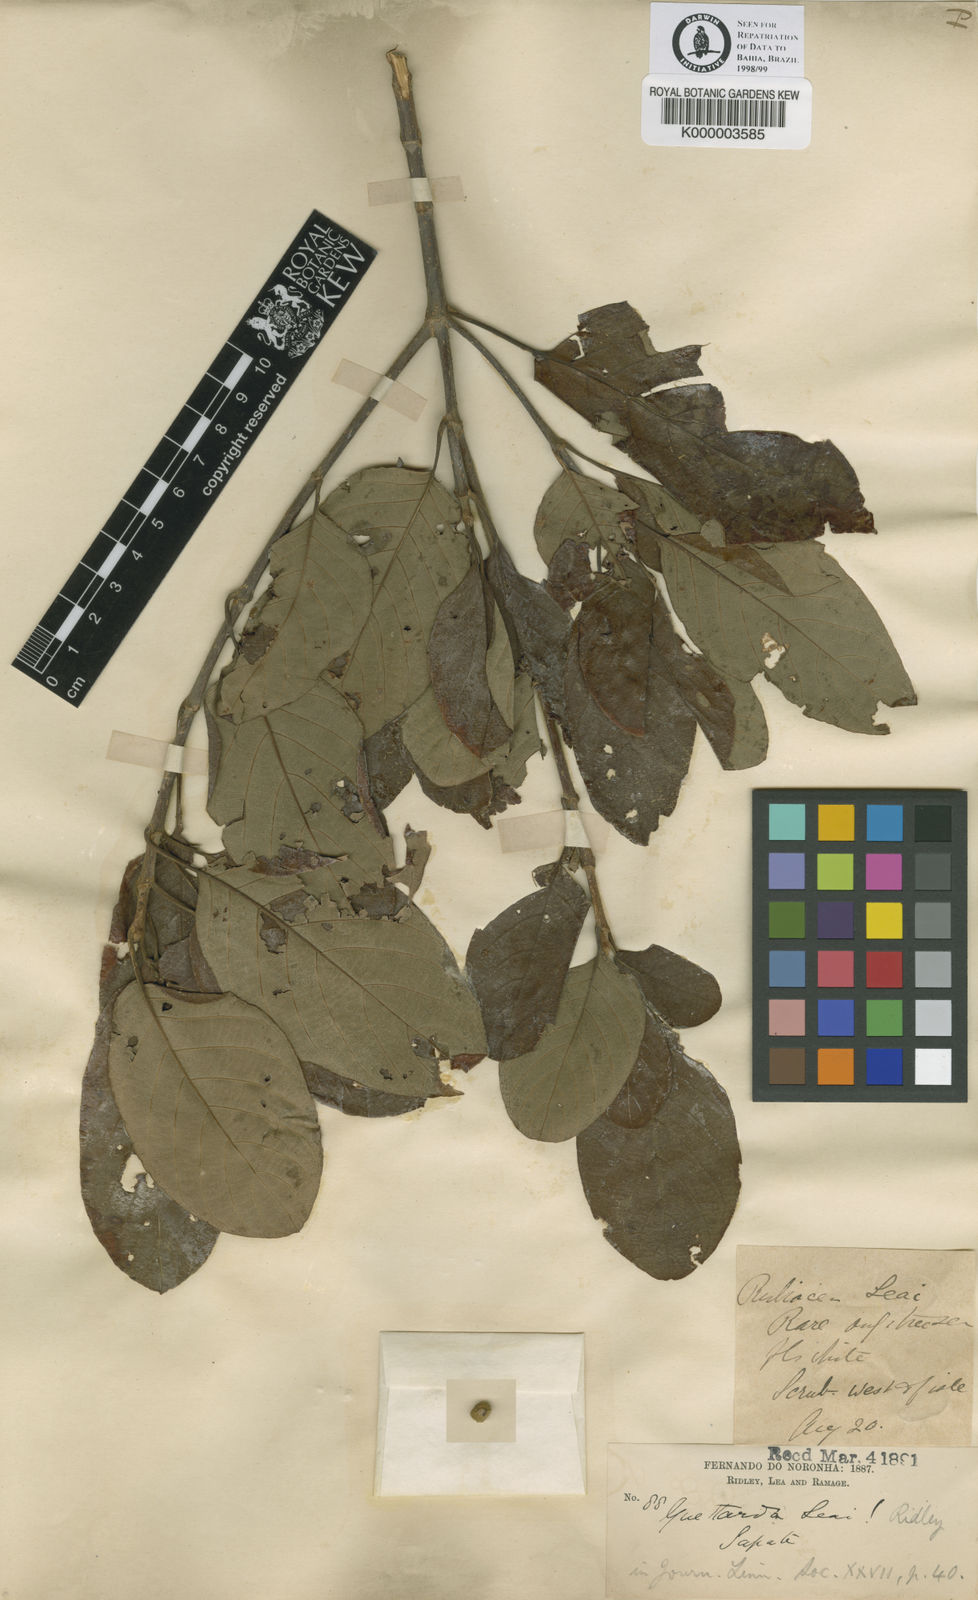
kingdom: Plantae
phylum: Tracheophyta
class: Magnoliopsida
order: Gentianales
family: Rubiaceae
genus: Guettarda
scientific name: Guettarda leai
